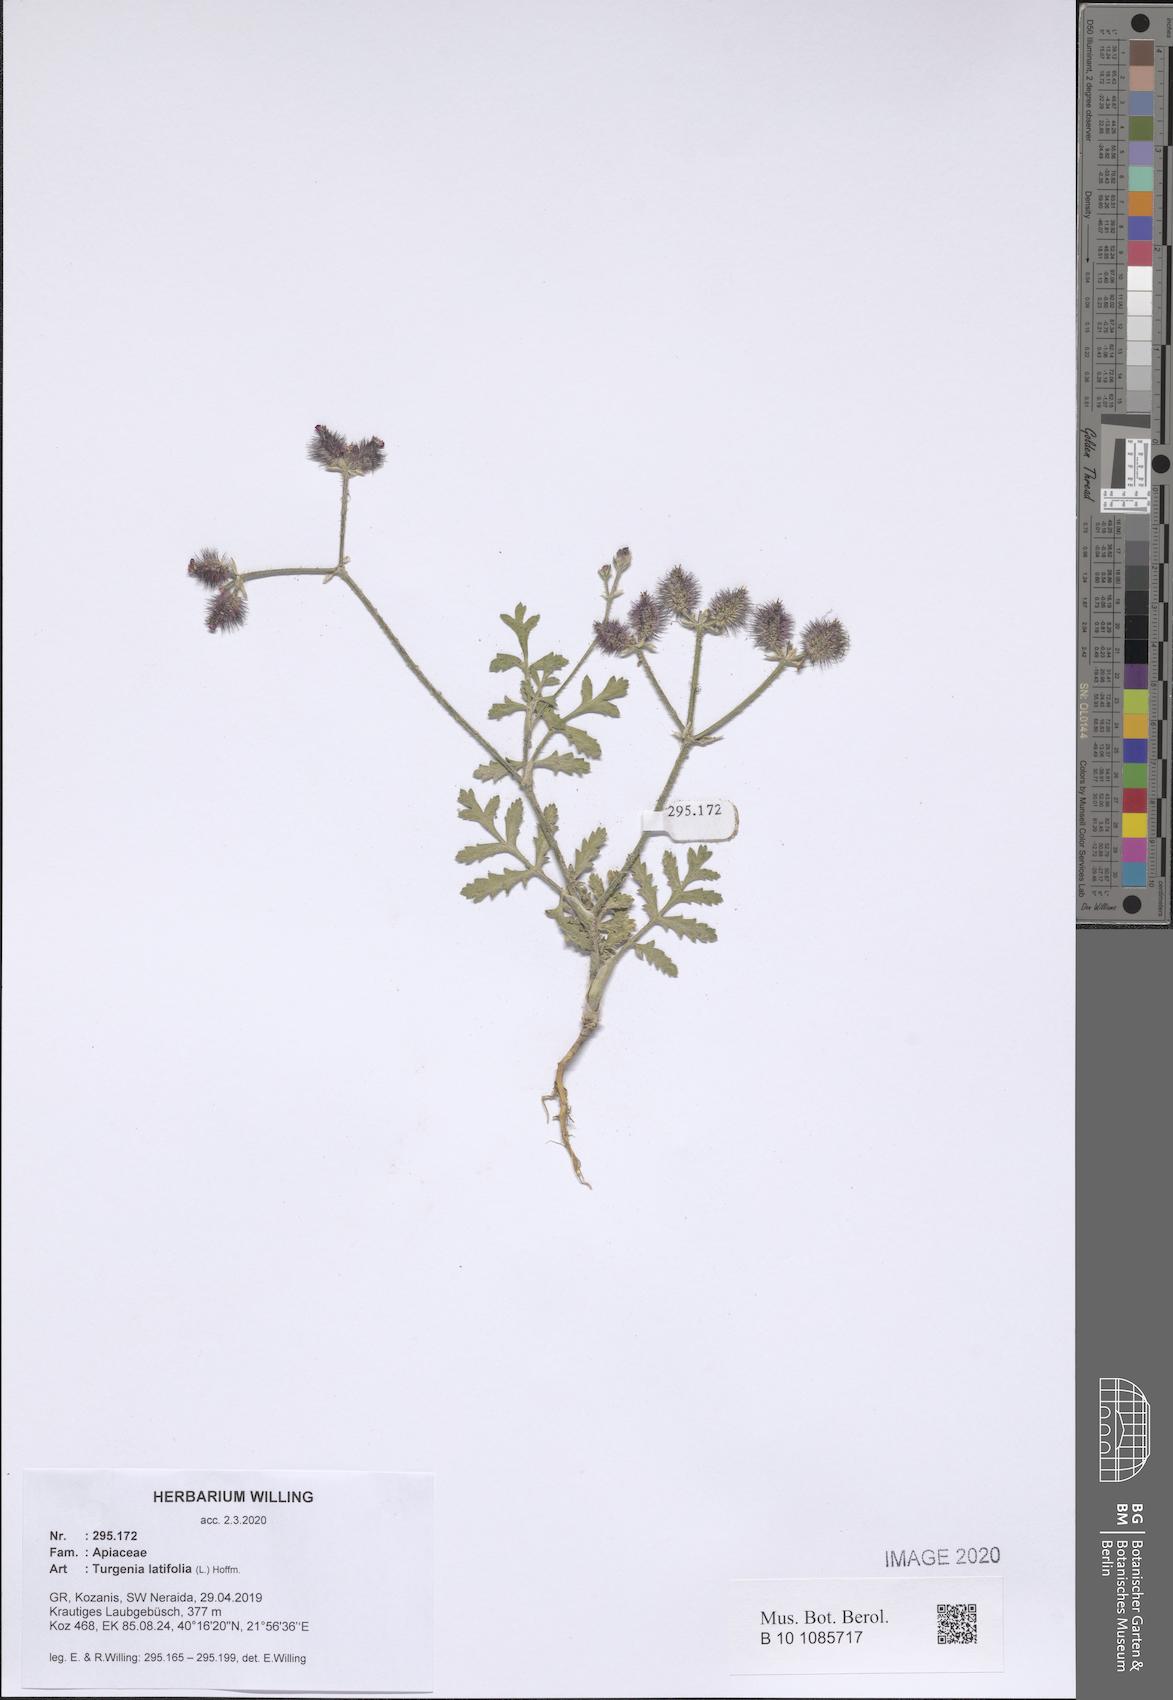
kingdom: Plantae
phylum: Tracheophyta
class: Magnoliopsida
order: Apiales
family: Apiaceae
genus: Turgenia
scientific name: Turgenia latifolia
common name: Greater bur-parsley
